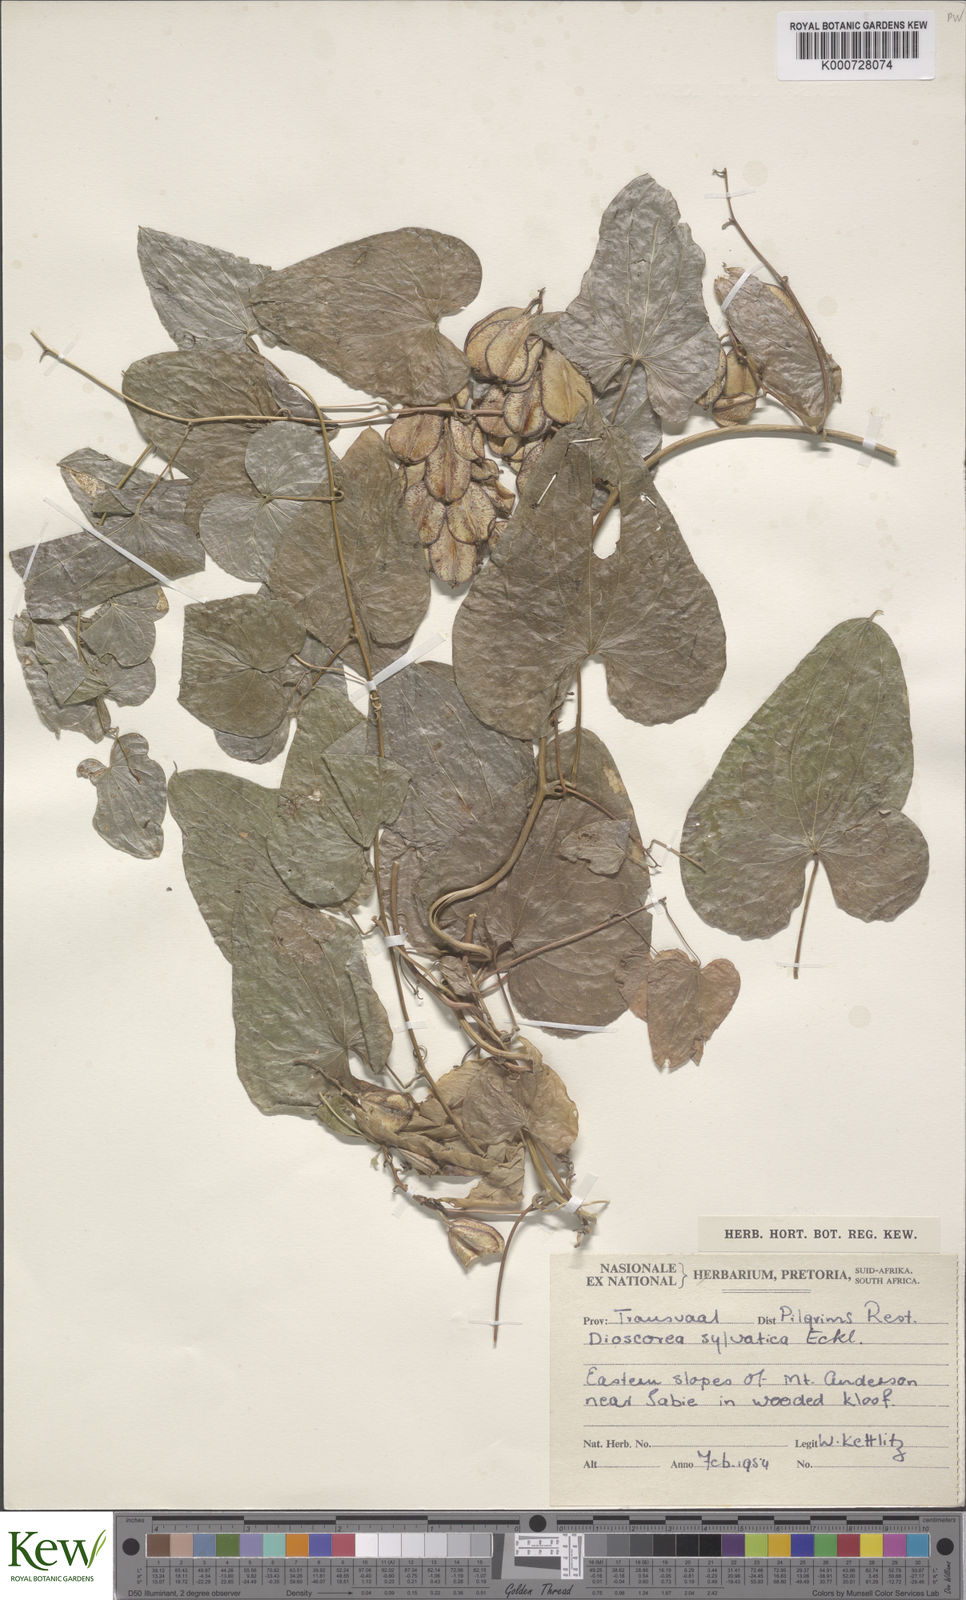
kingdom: Plantae
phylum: Tracheophyta
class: Liliopsida
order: Dioscoreales
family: Dioscoreaceae
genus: Dioscorea
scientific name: Dioscorea sylvatica
